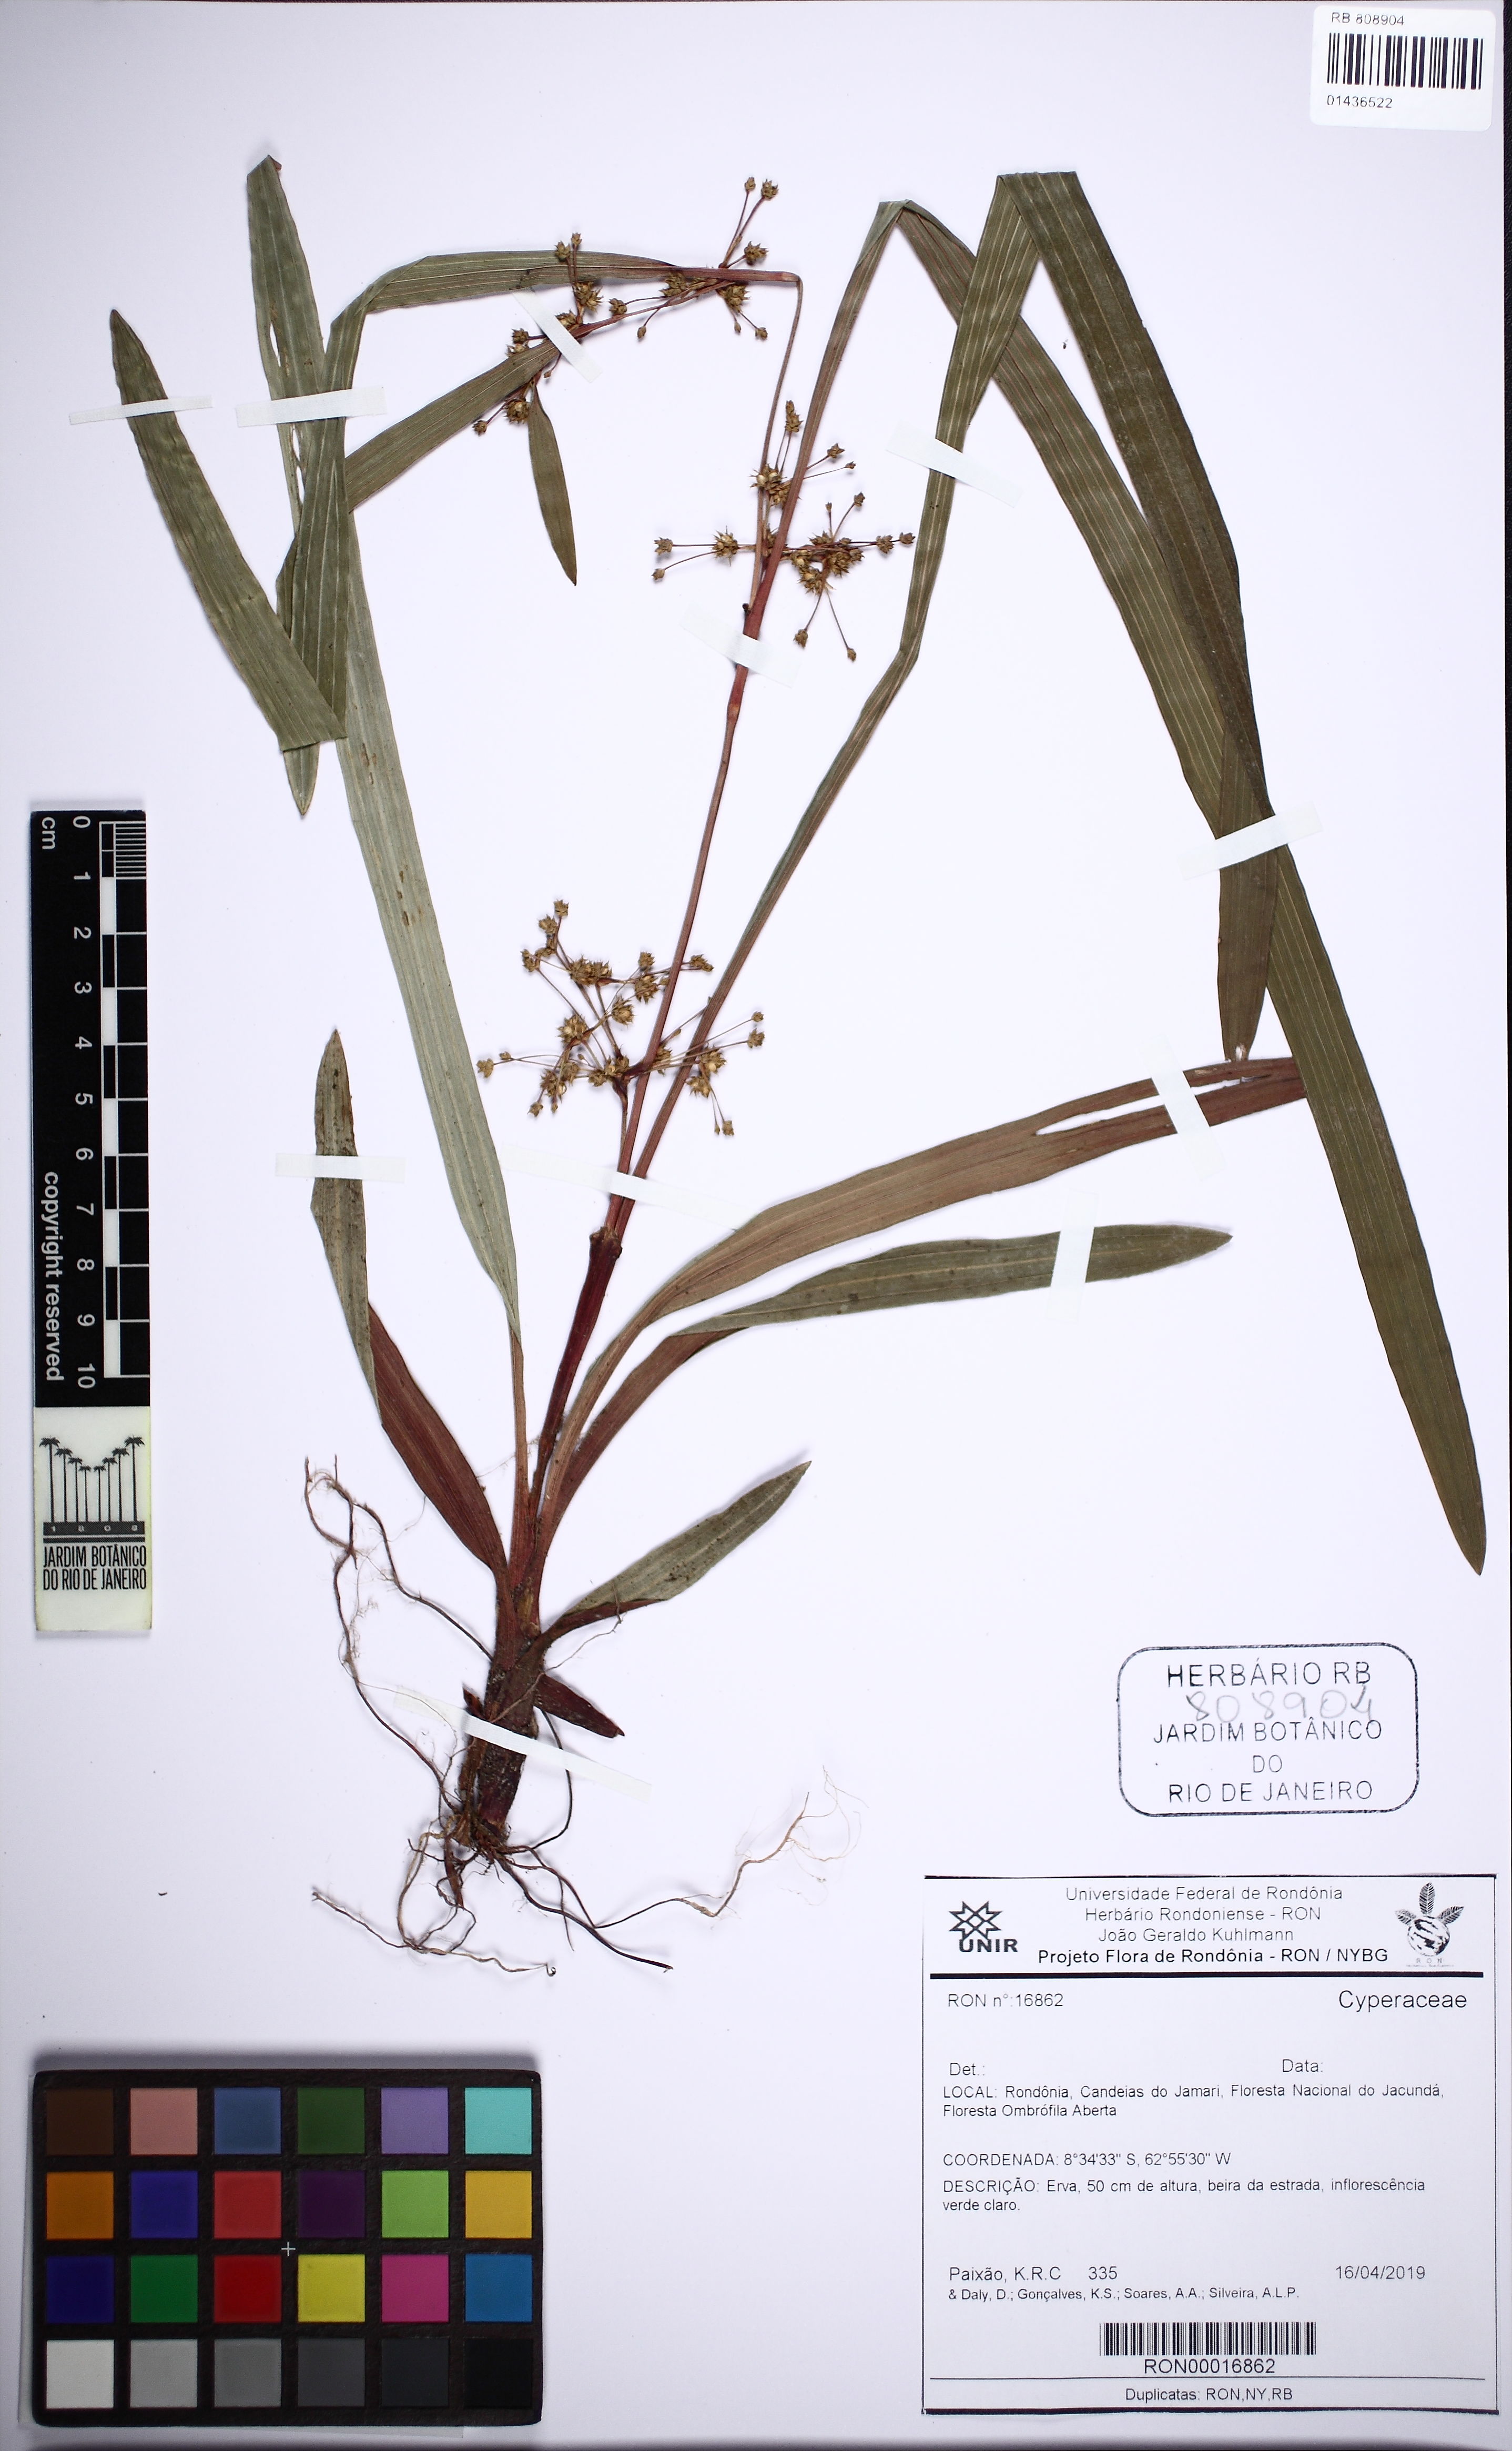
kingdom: Plantae
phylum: Tracheophyta
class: Liliopsida
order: Poales
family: Cyperaceae
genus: Calyptrocarya
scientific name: Calyptrocarya bicolor
